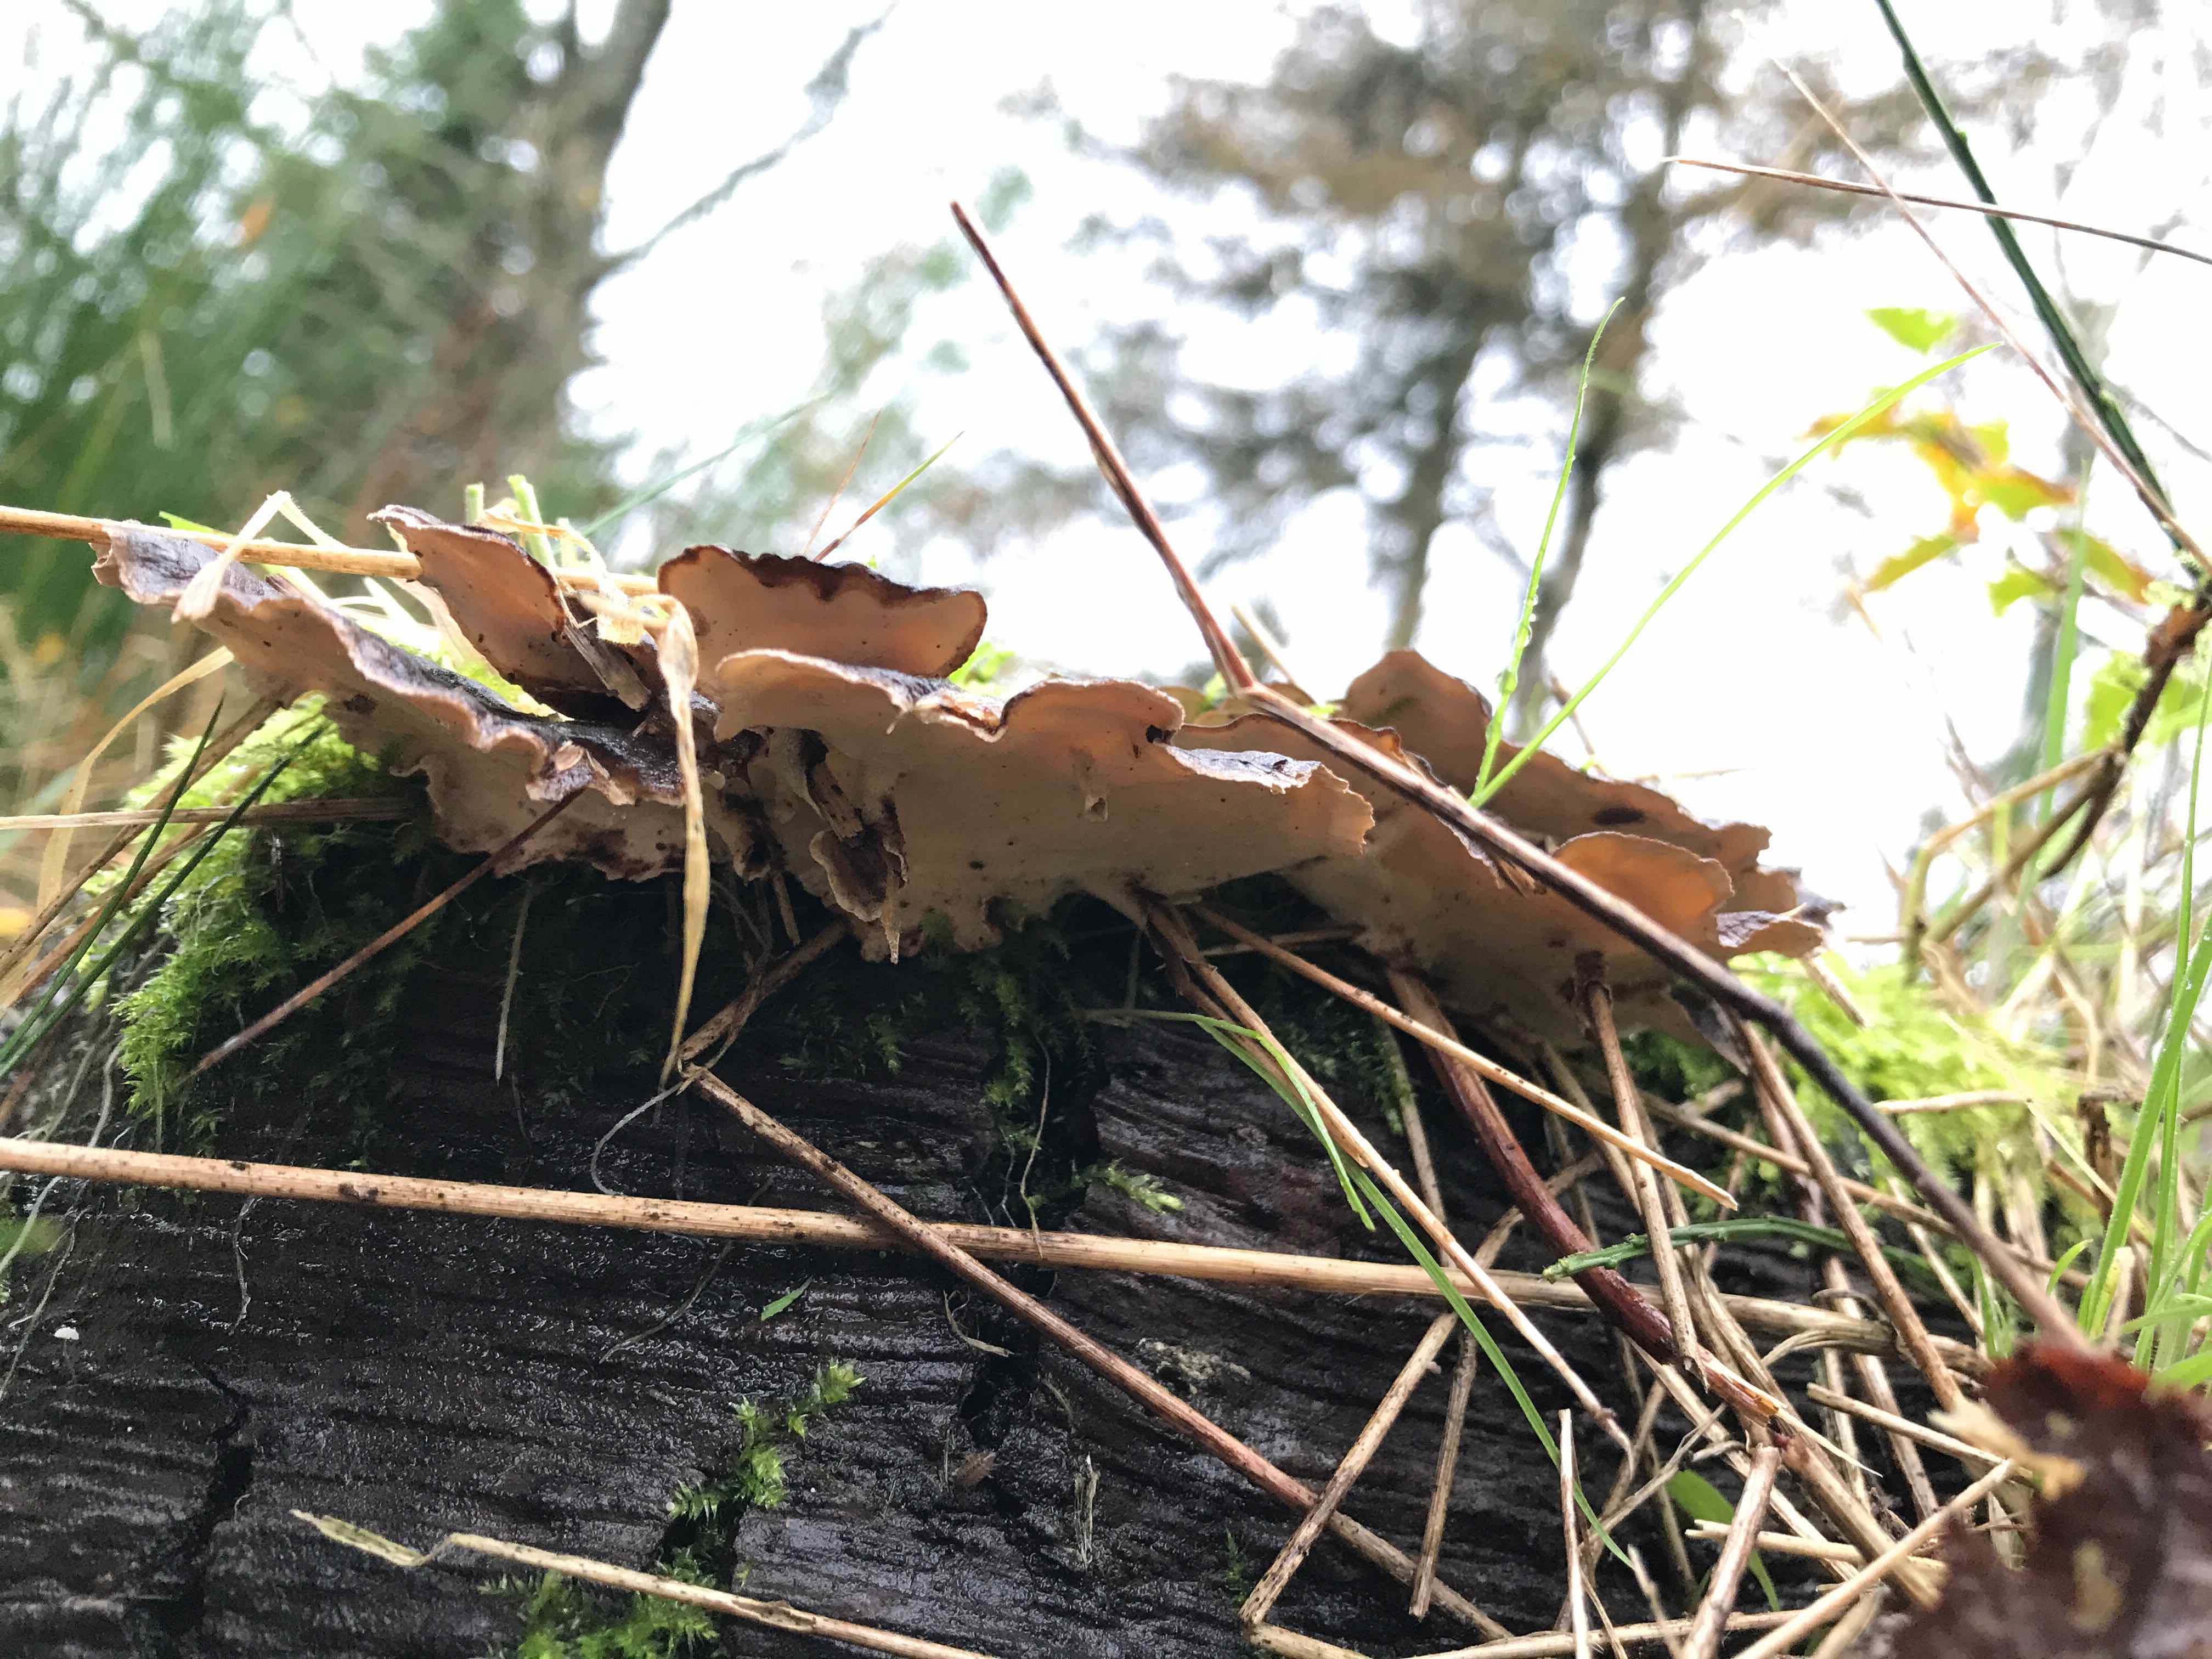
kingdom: Fungi
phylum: Basidiomycota
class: Agaricomycetes
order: Polyporales
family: Polyporaceae
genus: Trametes
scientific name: Trametes versicolor
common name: broget læderporesvamp
